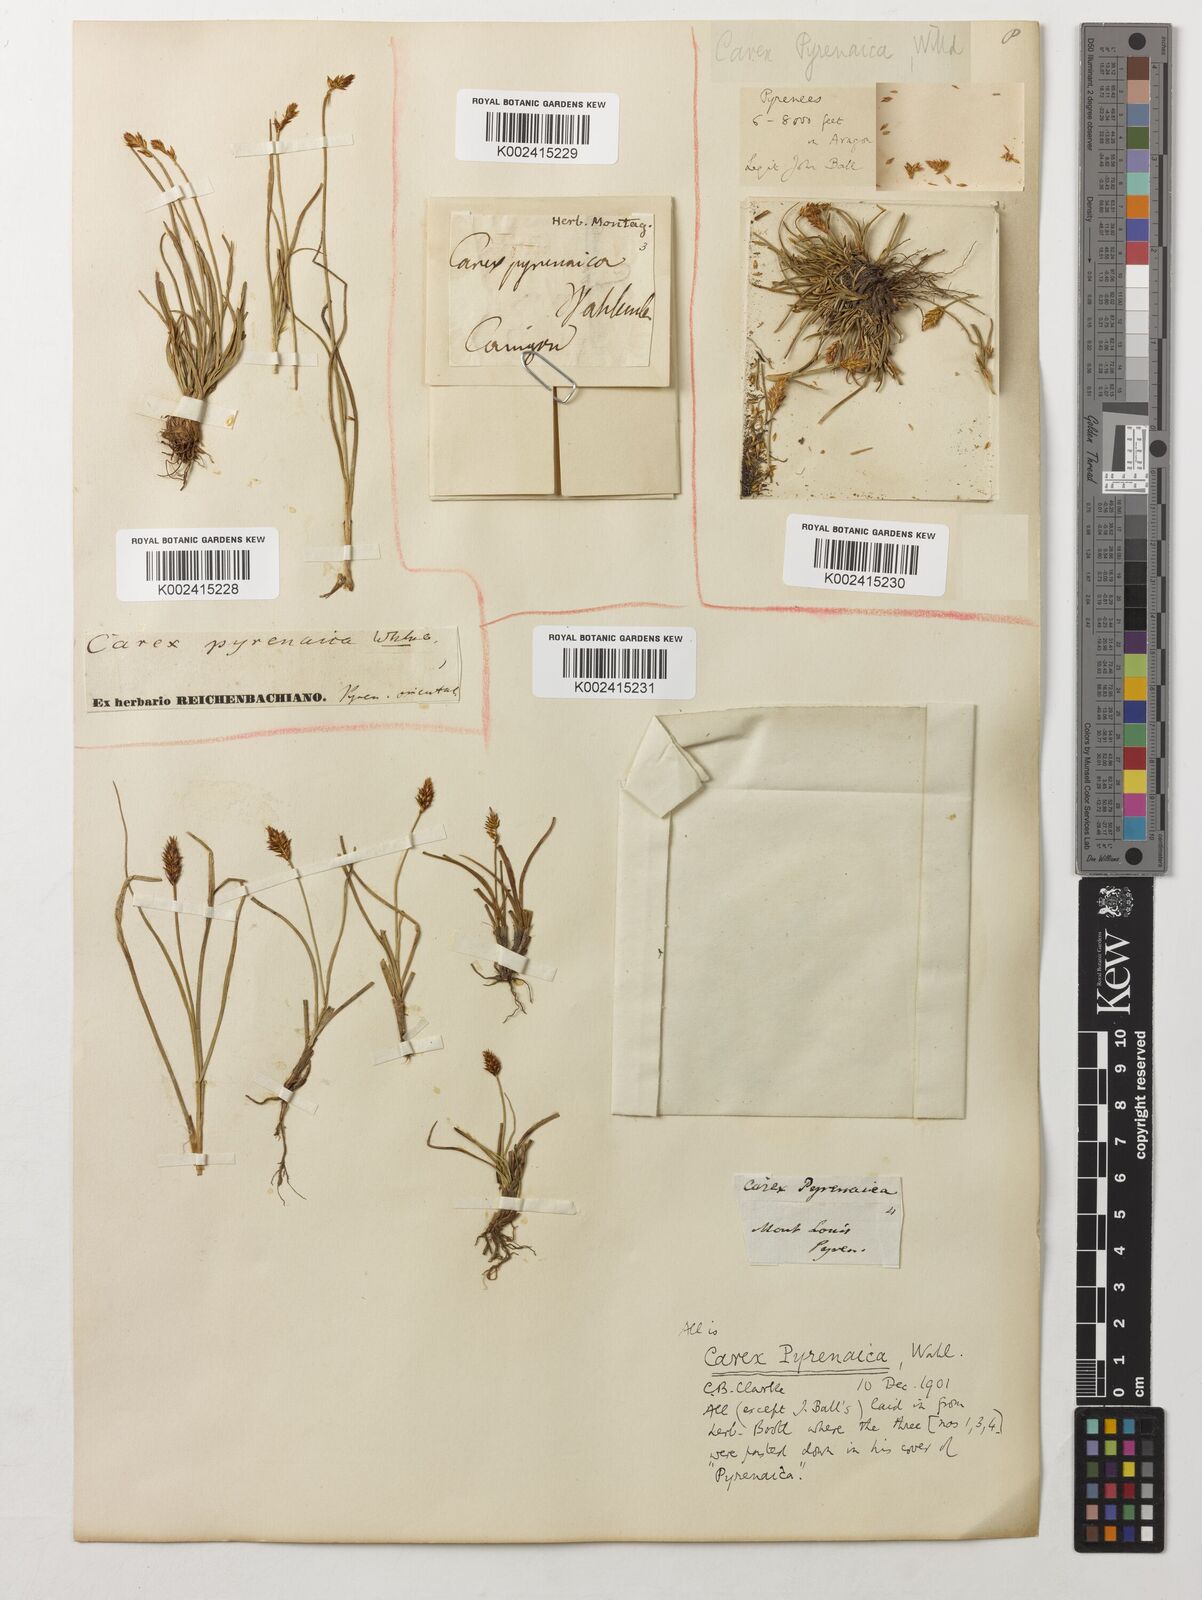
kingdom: Plantae
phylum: Tracheophyta
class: Liliopsida
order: Poales
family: Cyperaceae
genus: Carex
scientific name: Carex pyrenaica
